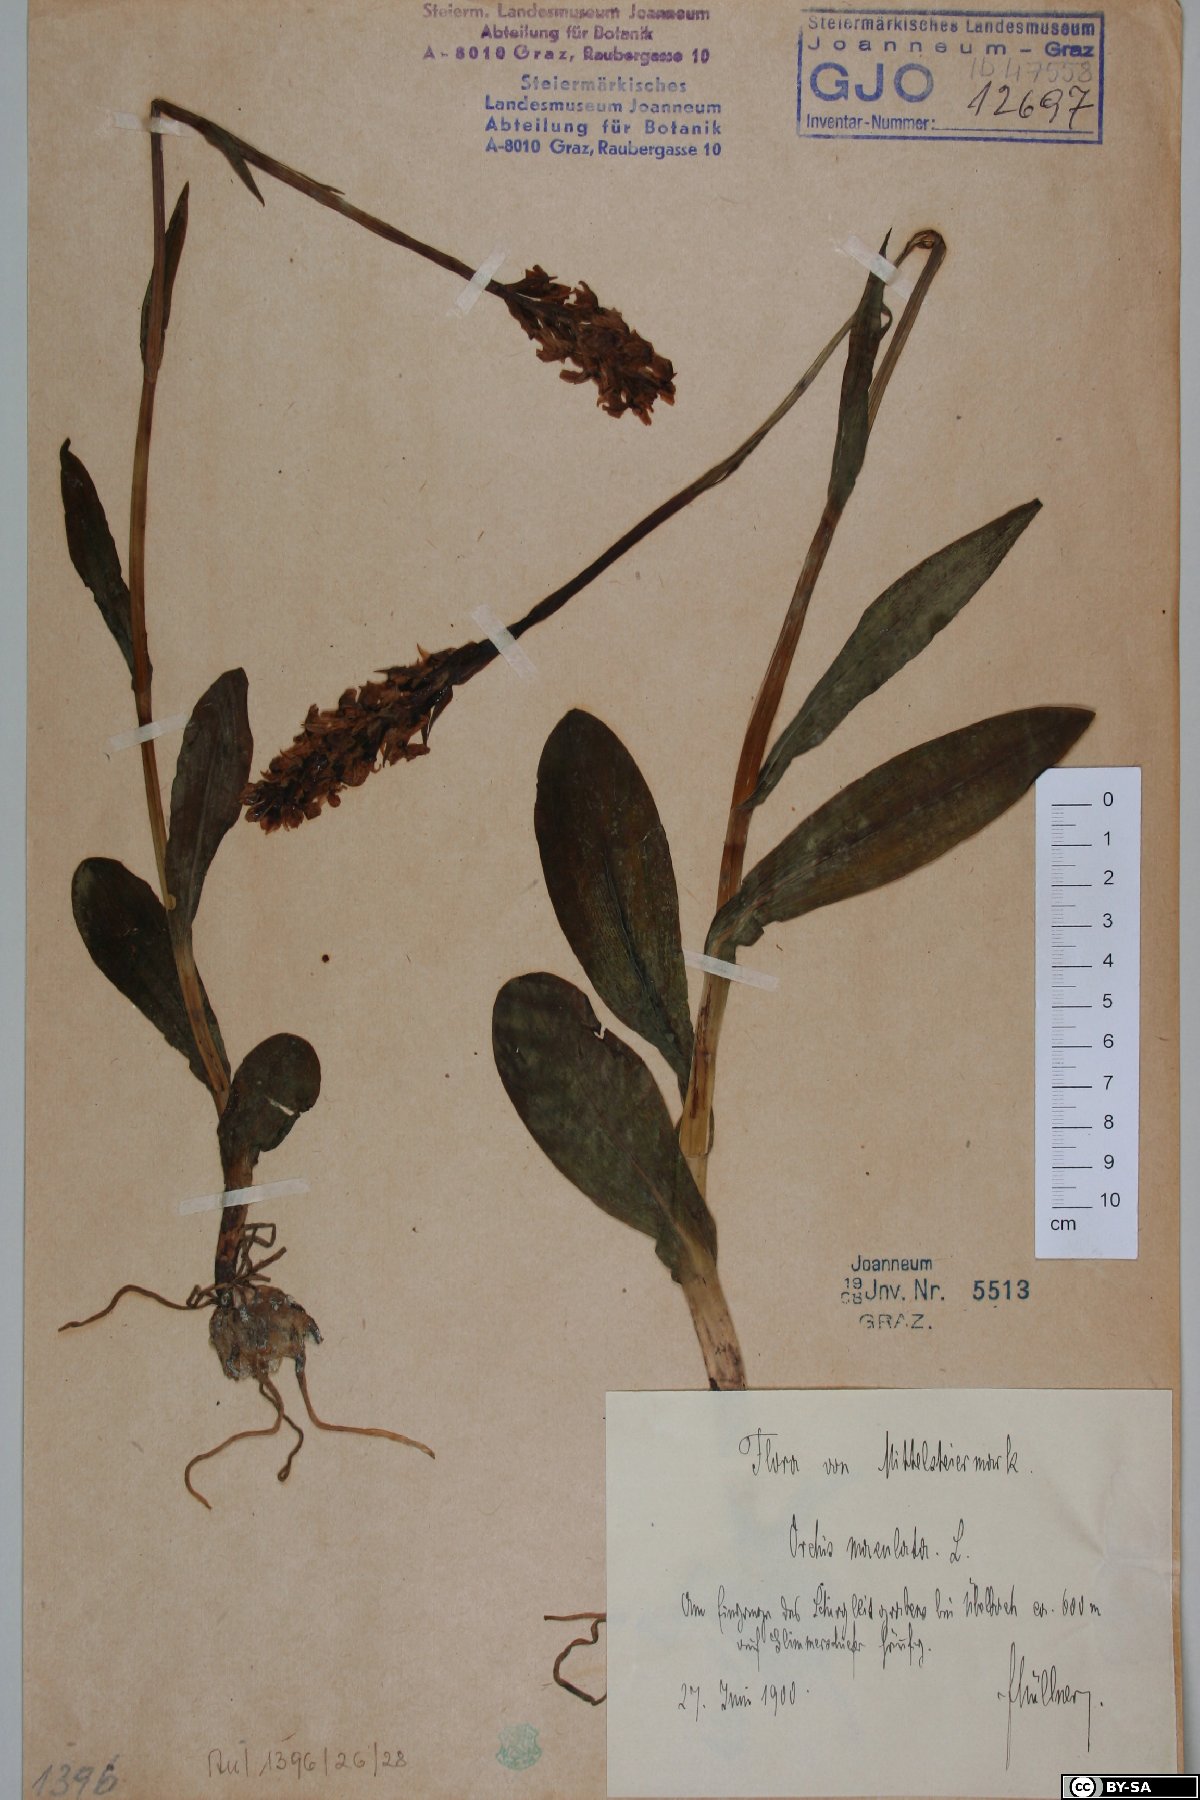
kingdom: Plantae
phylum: Tracheophyta
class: Liliopsida
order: Asparagales
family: Orchidaceae
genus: Dactylorhiza
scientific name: Dactylorhiza maculata
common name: Heath spotted-orchid
